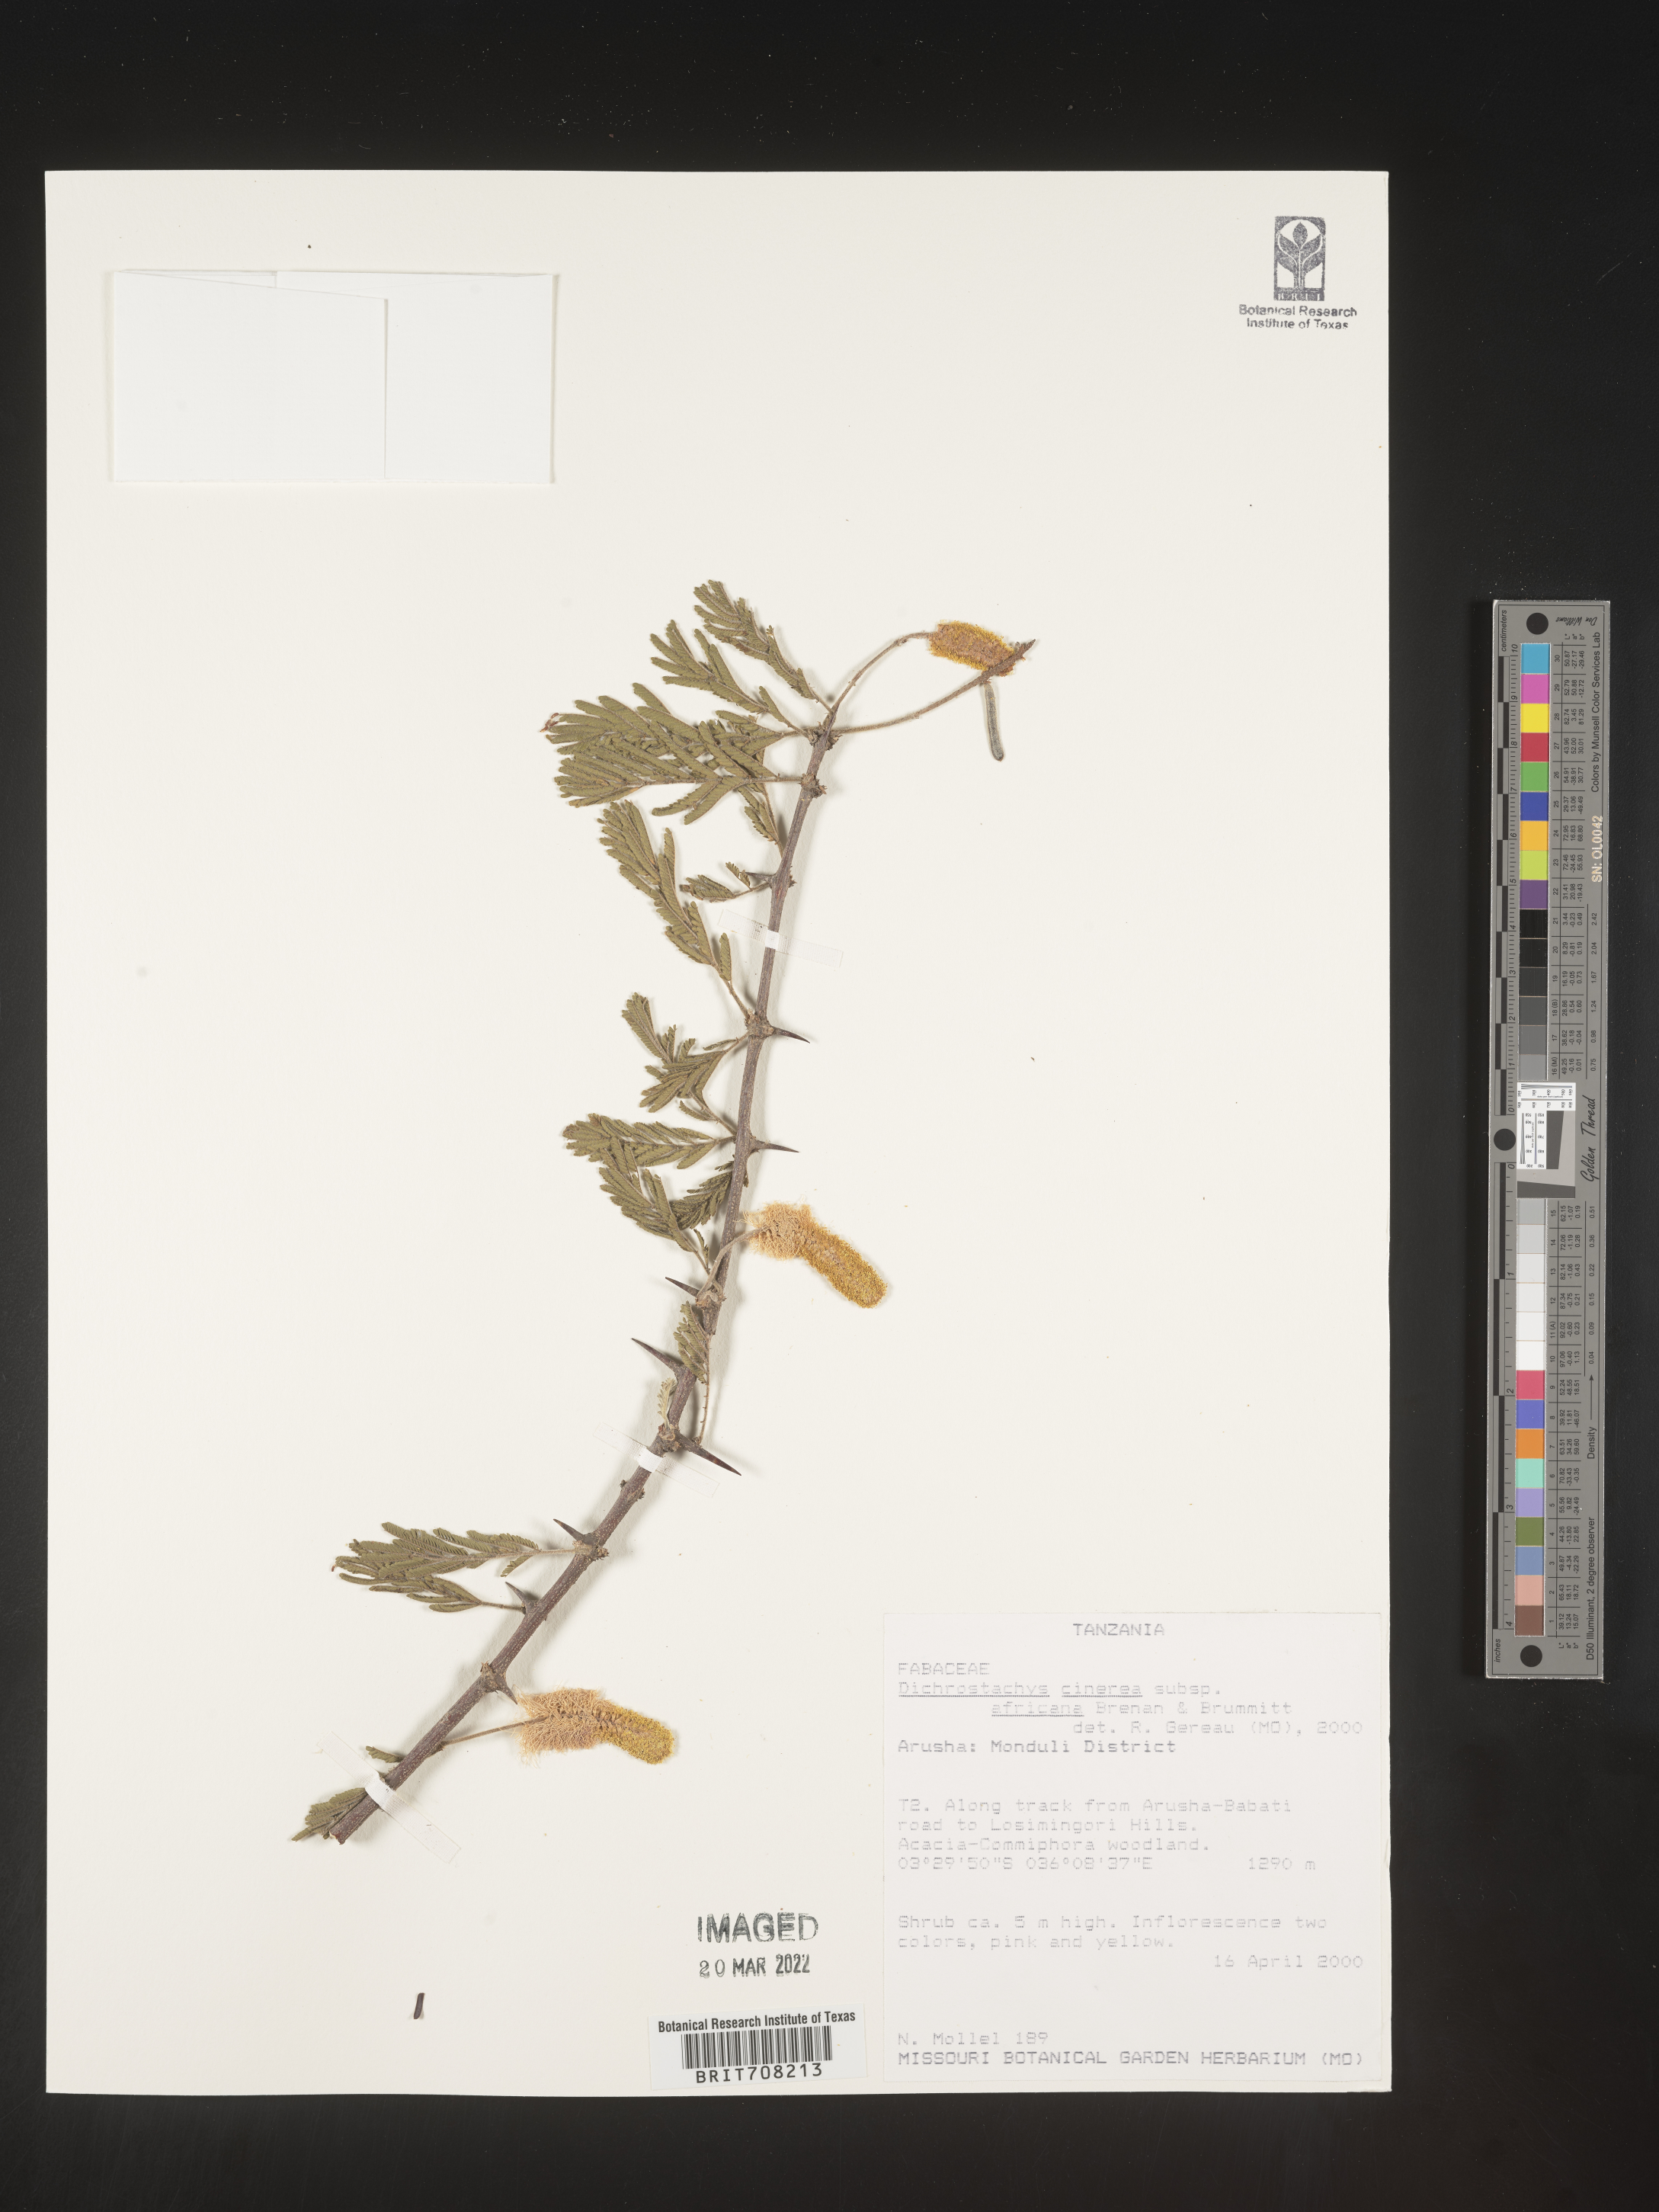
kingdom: Plantae
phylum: Tracheophyta
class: Magnoliopsida
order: Fabales
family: Fabaceae
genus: Dichrostachys
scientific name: Dichrostachys
